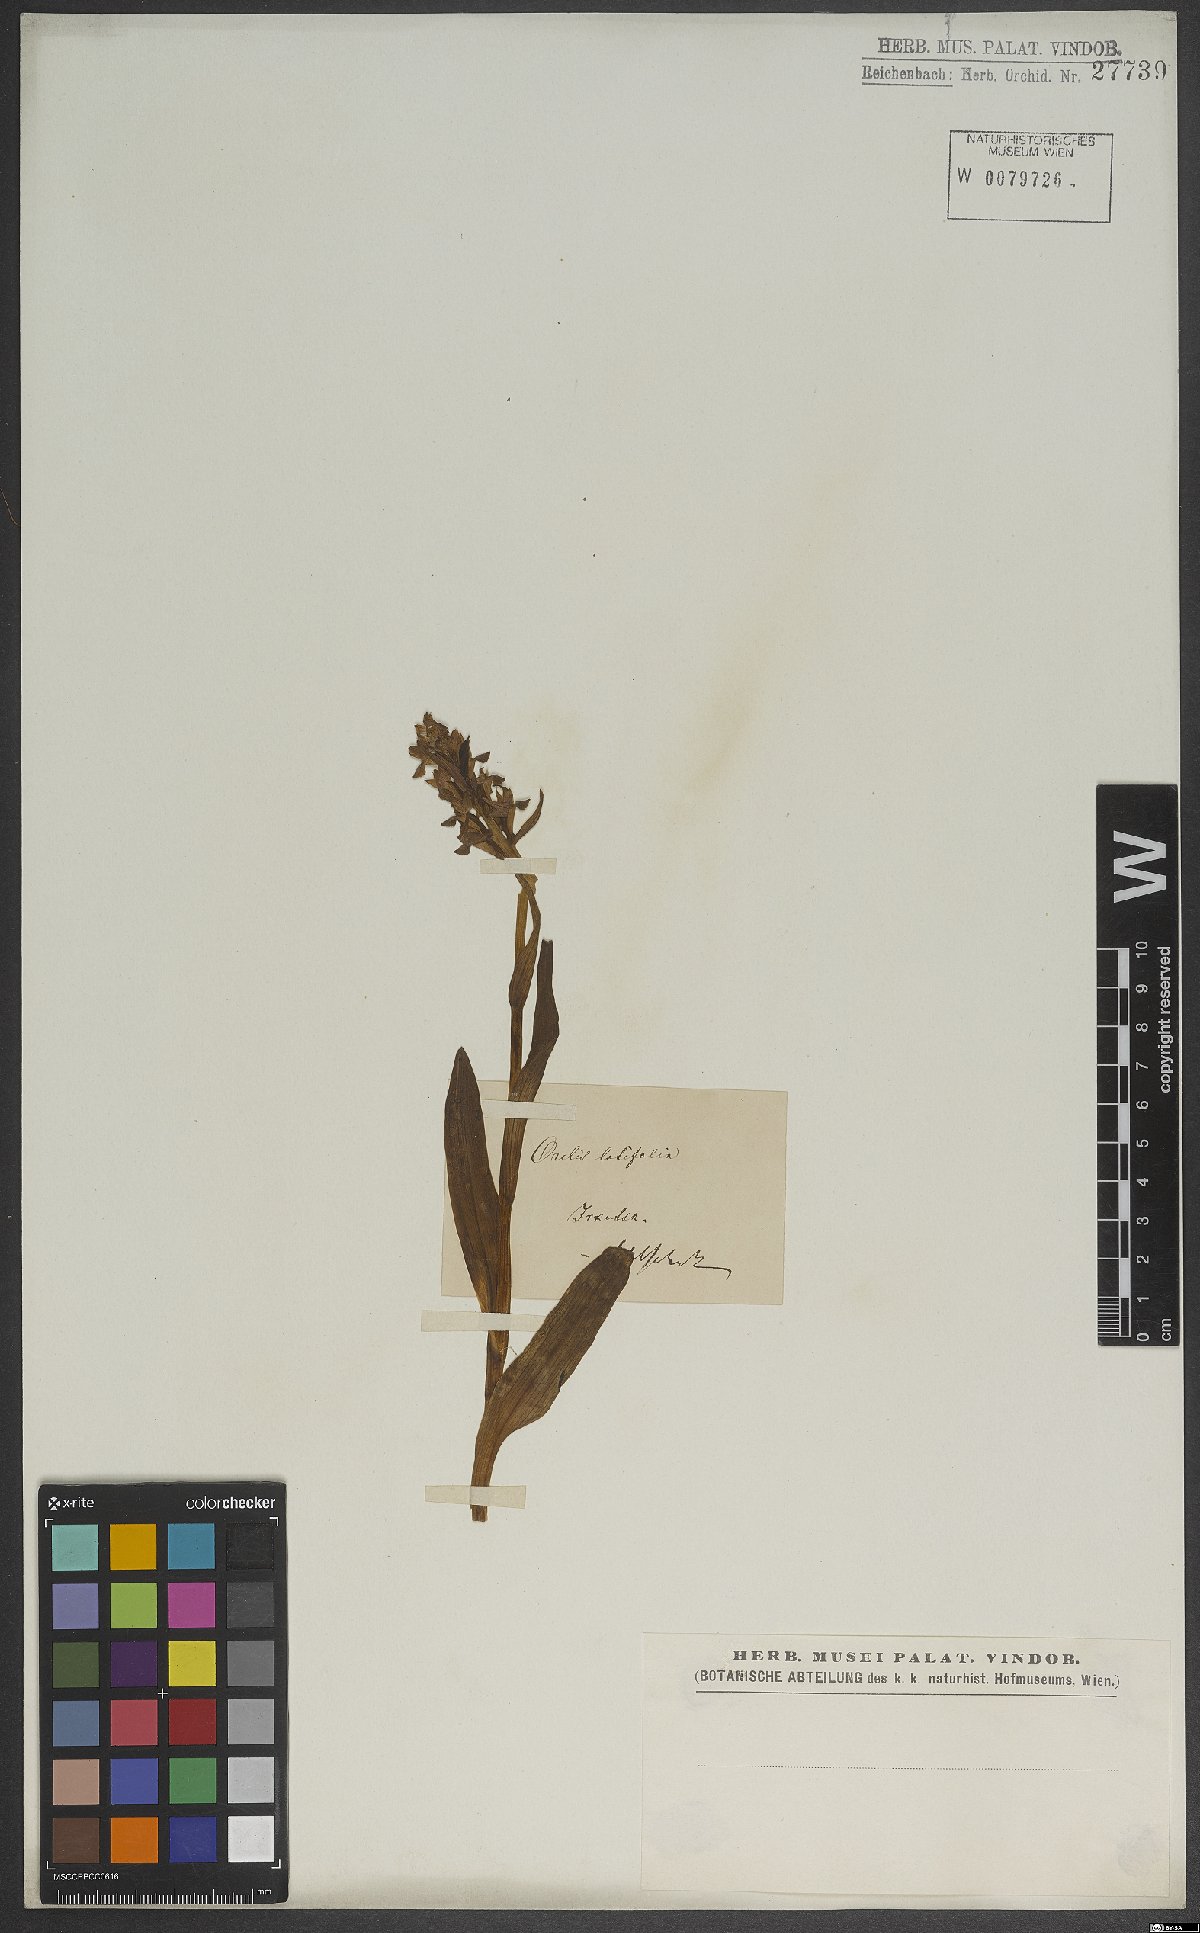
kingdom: Plantae
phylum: Tracheophyta
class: Liliopsida
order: Asparagales
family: Orchidaceae
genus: Dactylorhiza
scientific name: Dactylorhiza majalis
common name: Marsh orchid
